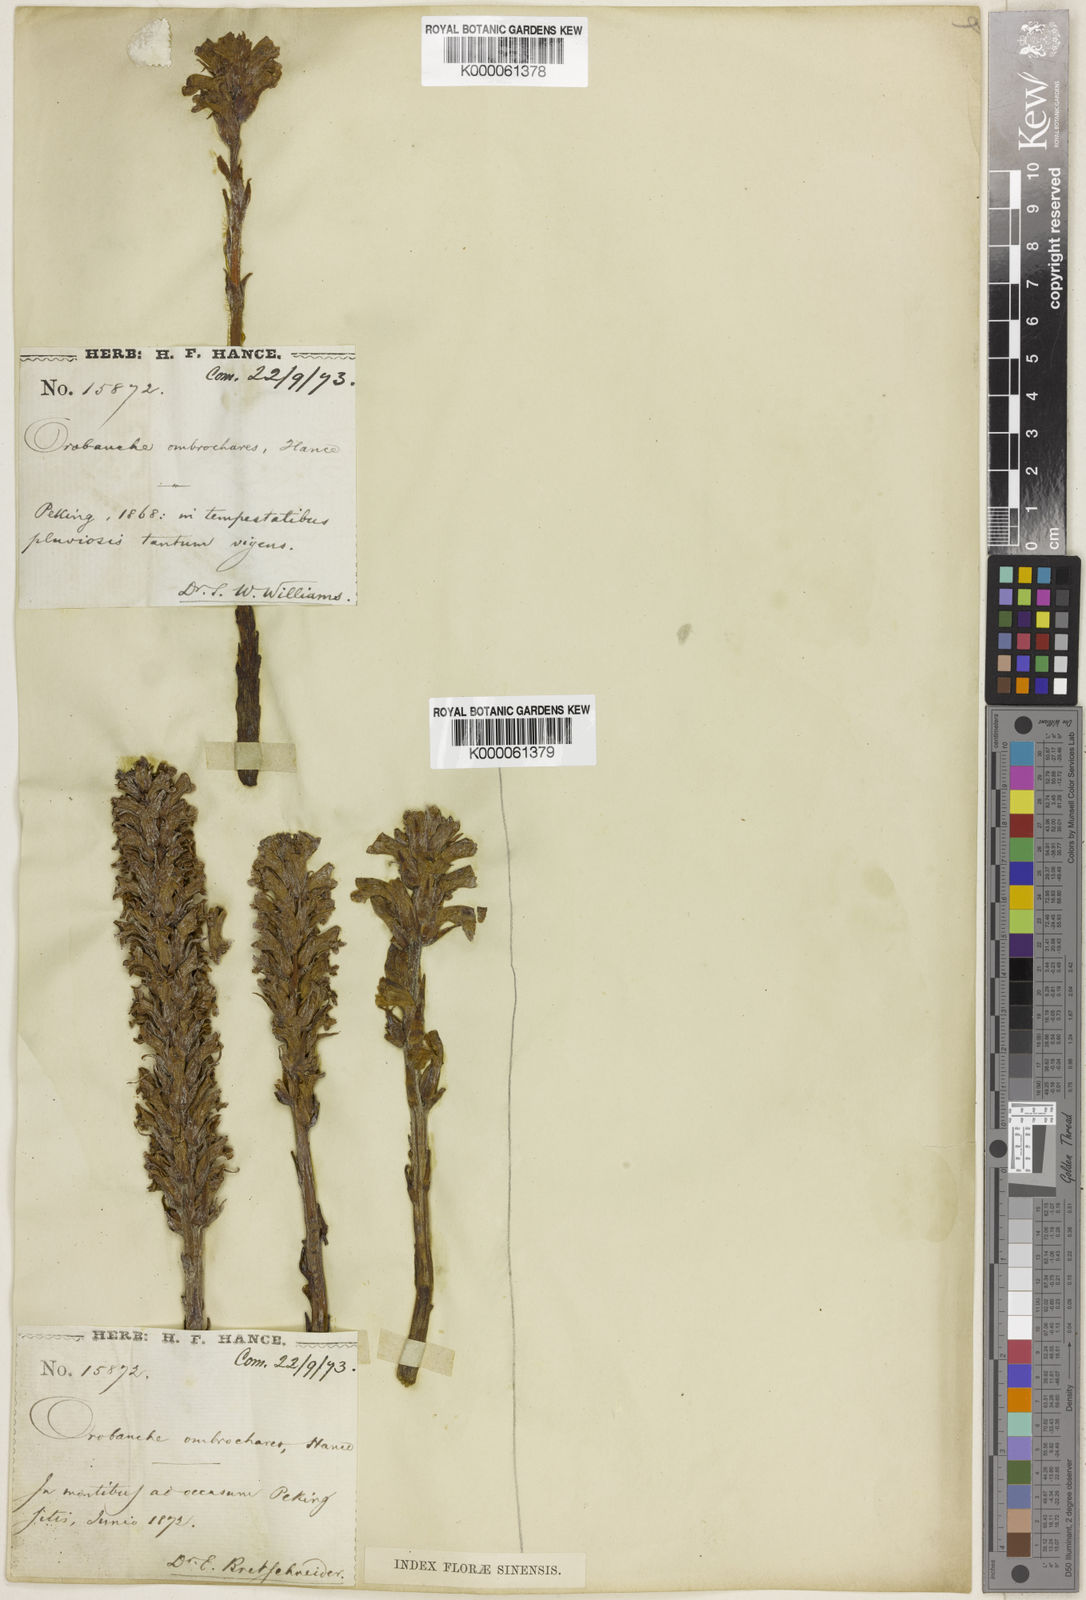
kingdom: Plantae
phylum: Tracheophyta
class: Magnoliopsida
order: Lamiales
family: Orobanchaceae
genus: Orobanche
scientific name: Orobanche ombrochares
